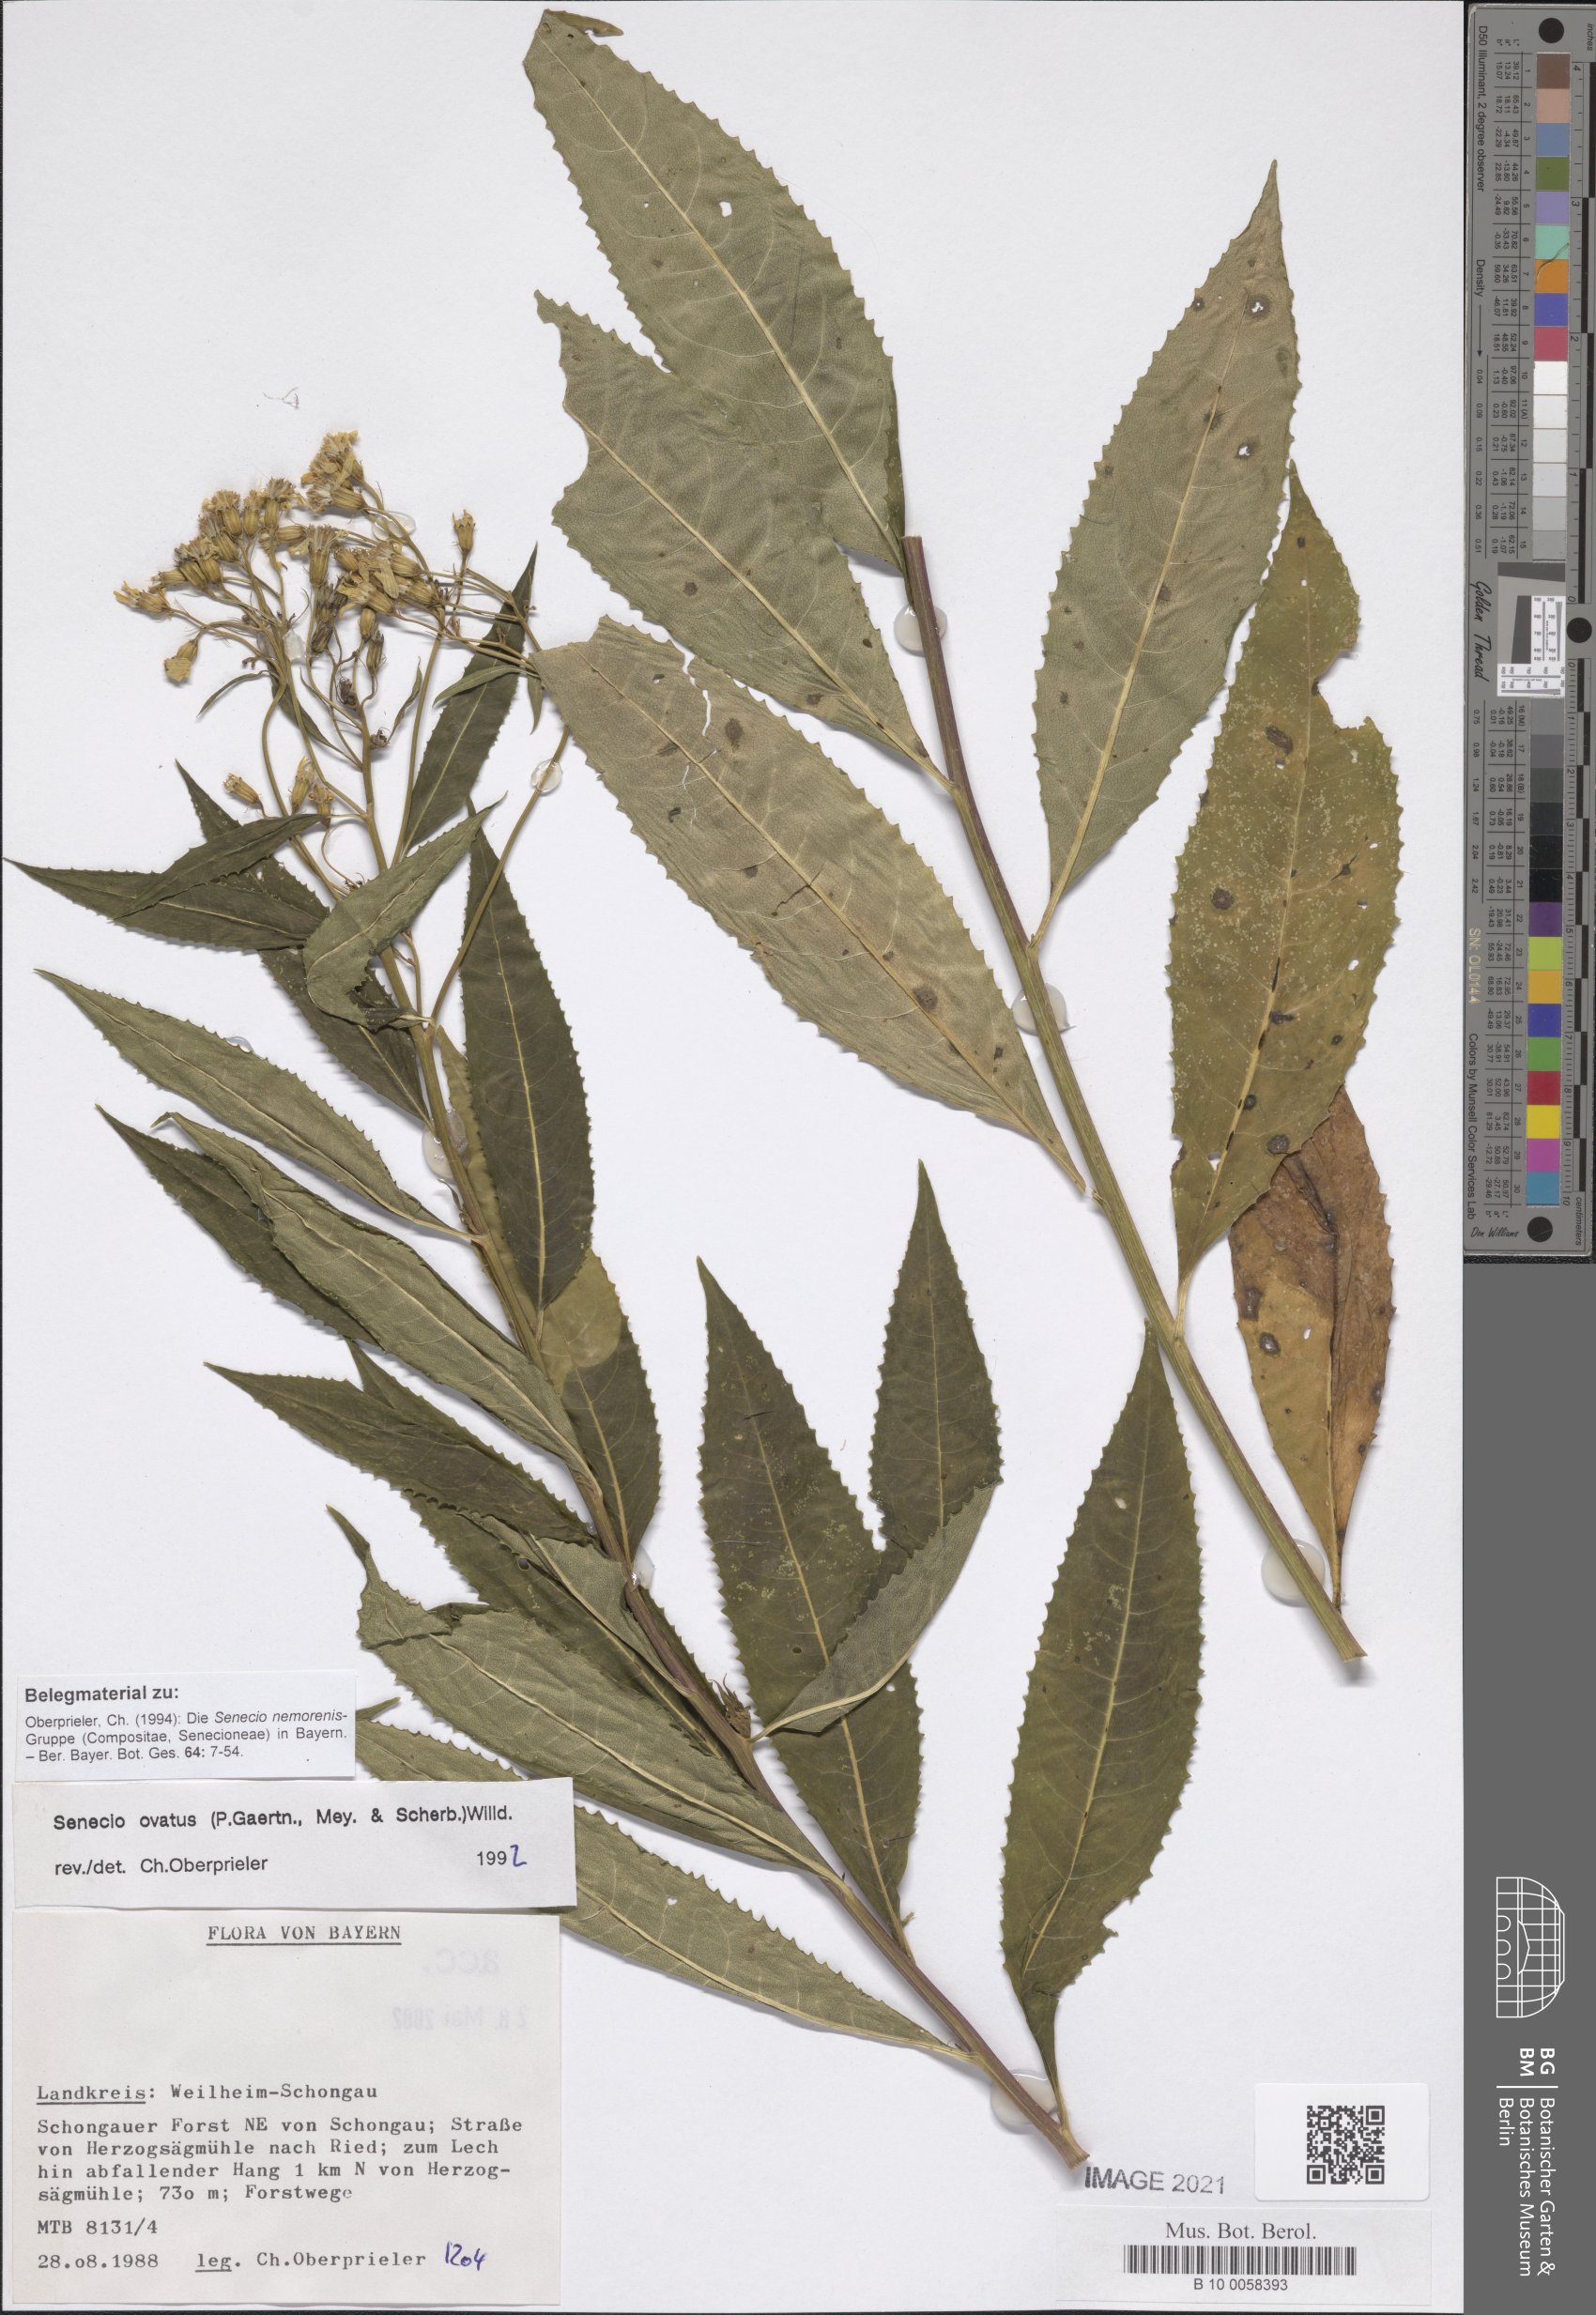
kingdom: Plantae
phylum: Tracheophyta
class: Magnoliopsida
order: Asterales
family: Asteraceae
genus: Senecio
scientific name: Senecio ovatus
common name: Wood ragwort
